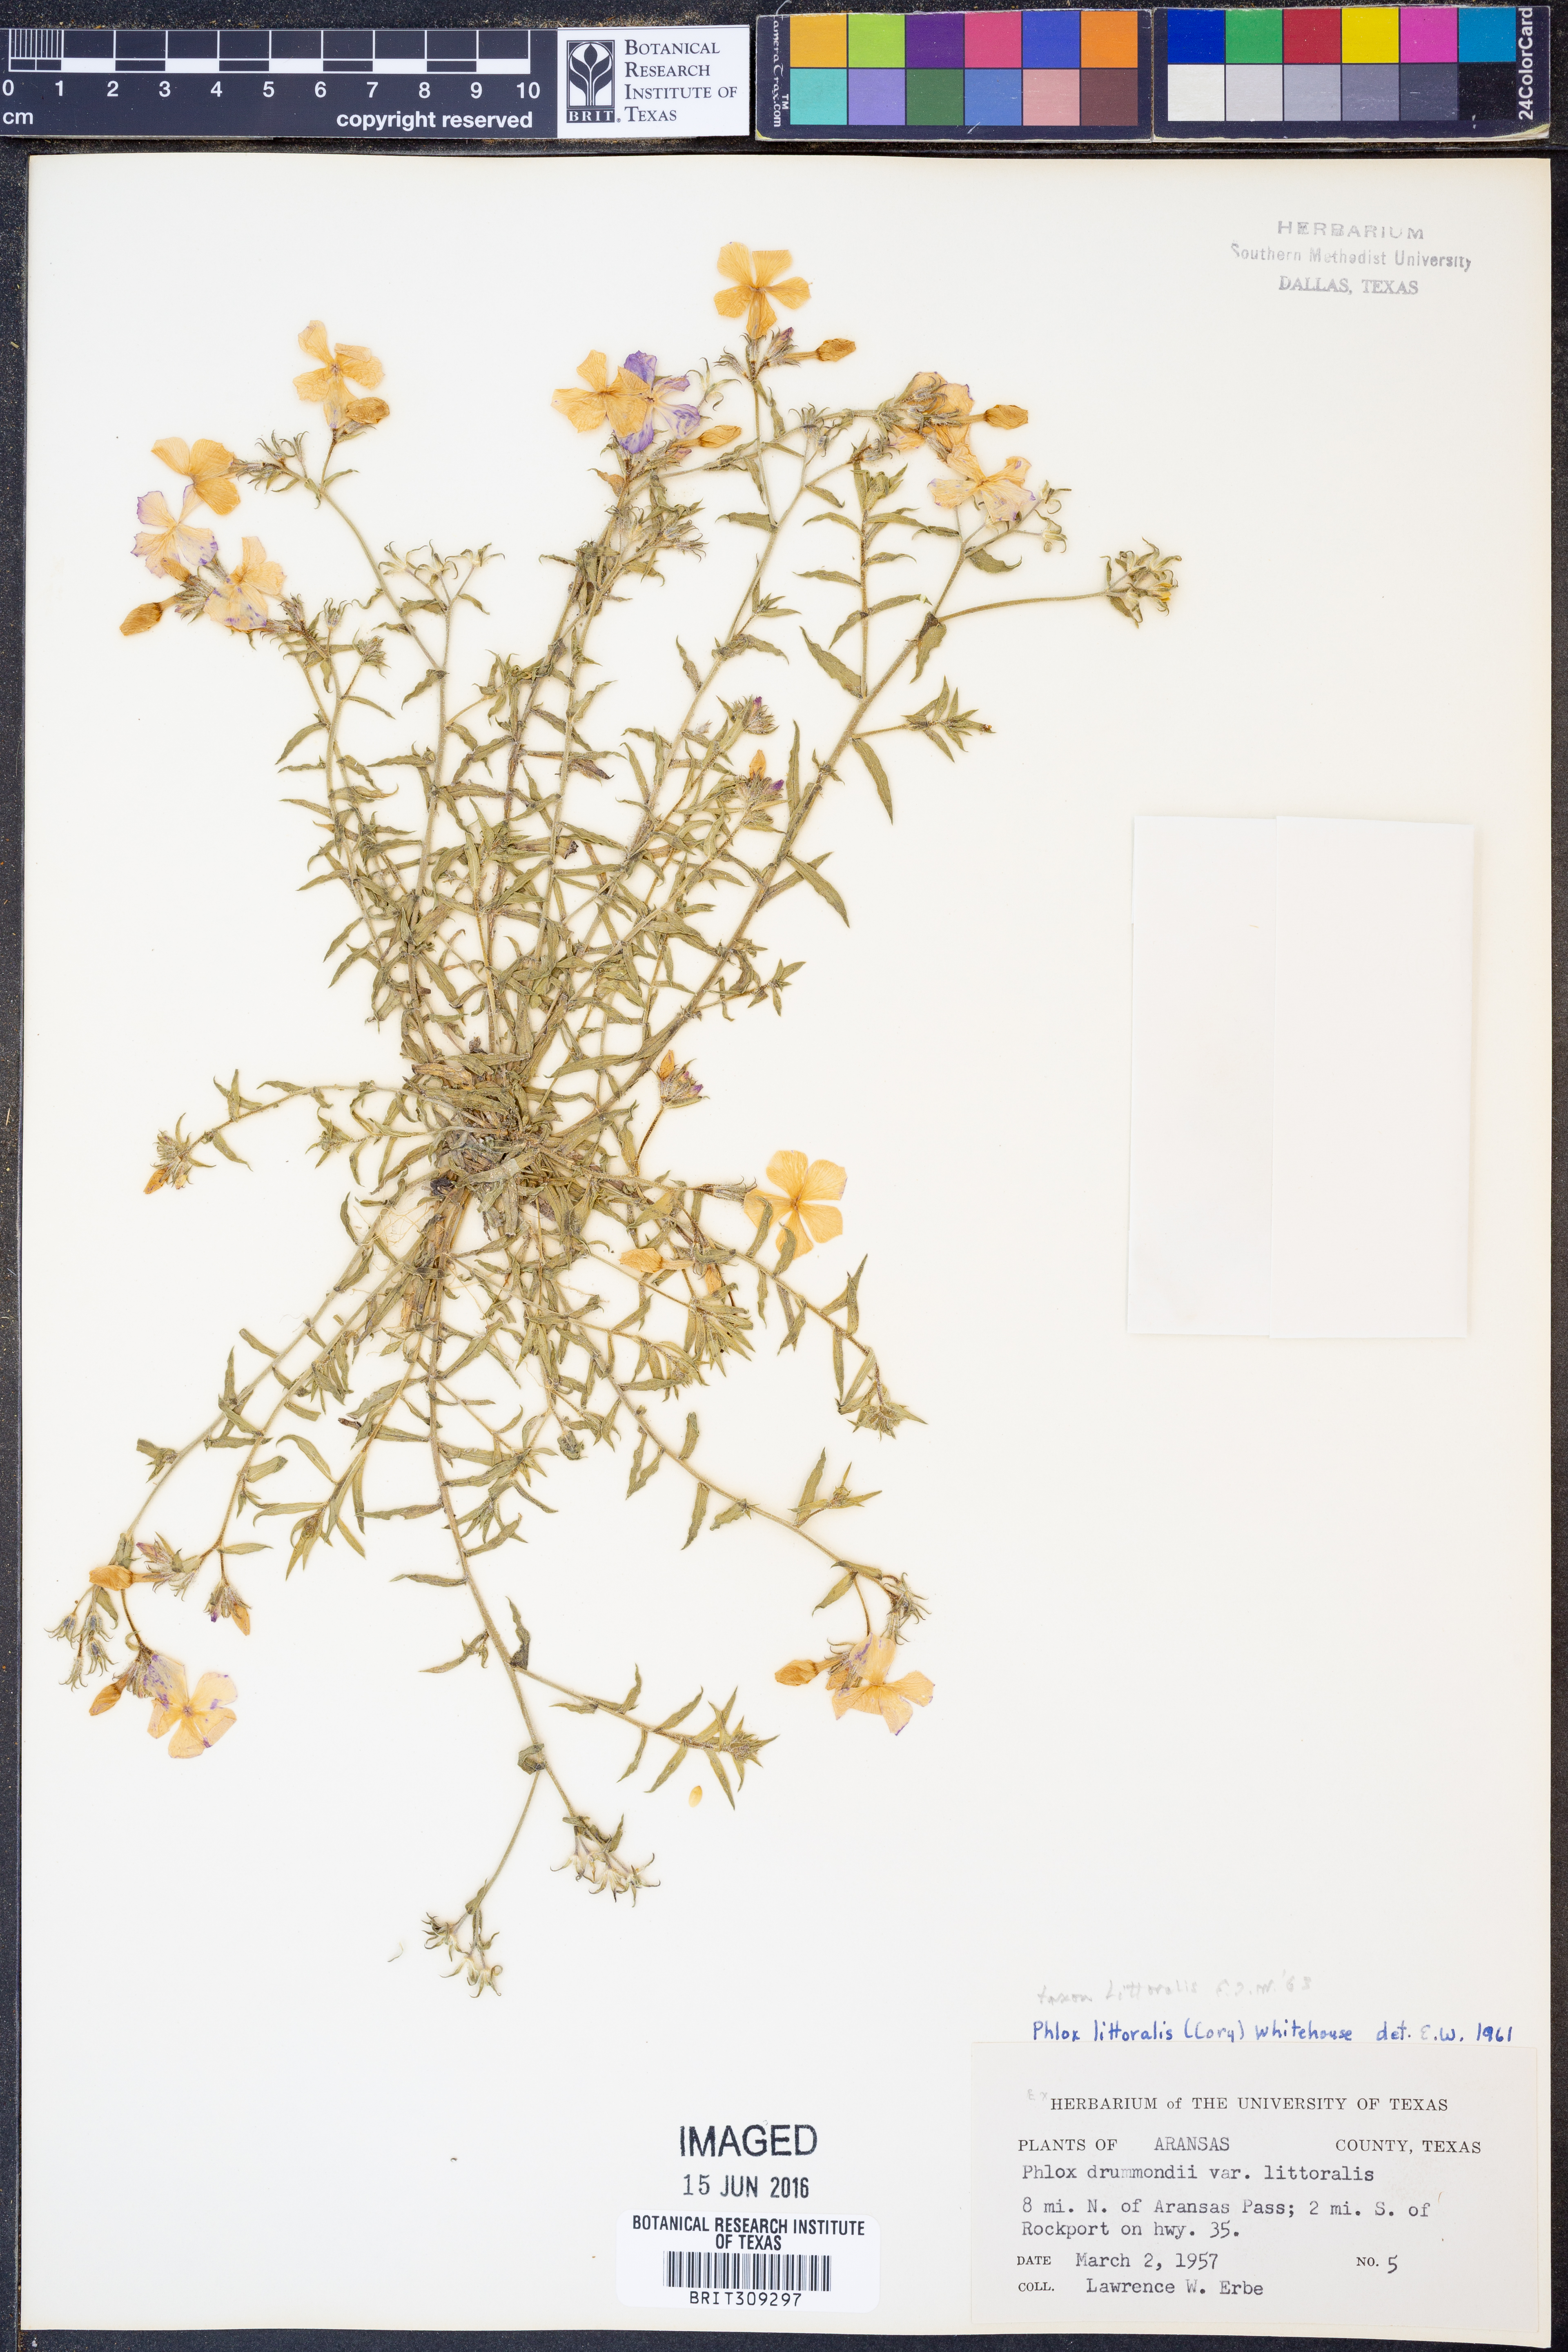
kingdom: Plantae
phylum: Tracheophyta
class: Magnoliopsida
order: Ericales
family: Polemoniaceae
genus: Phlox
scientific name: Phlox glabriflora
